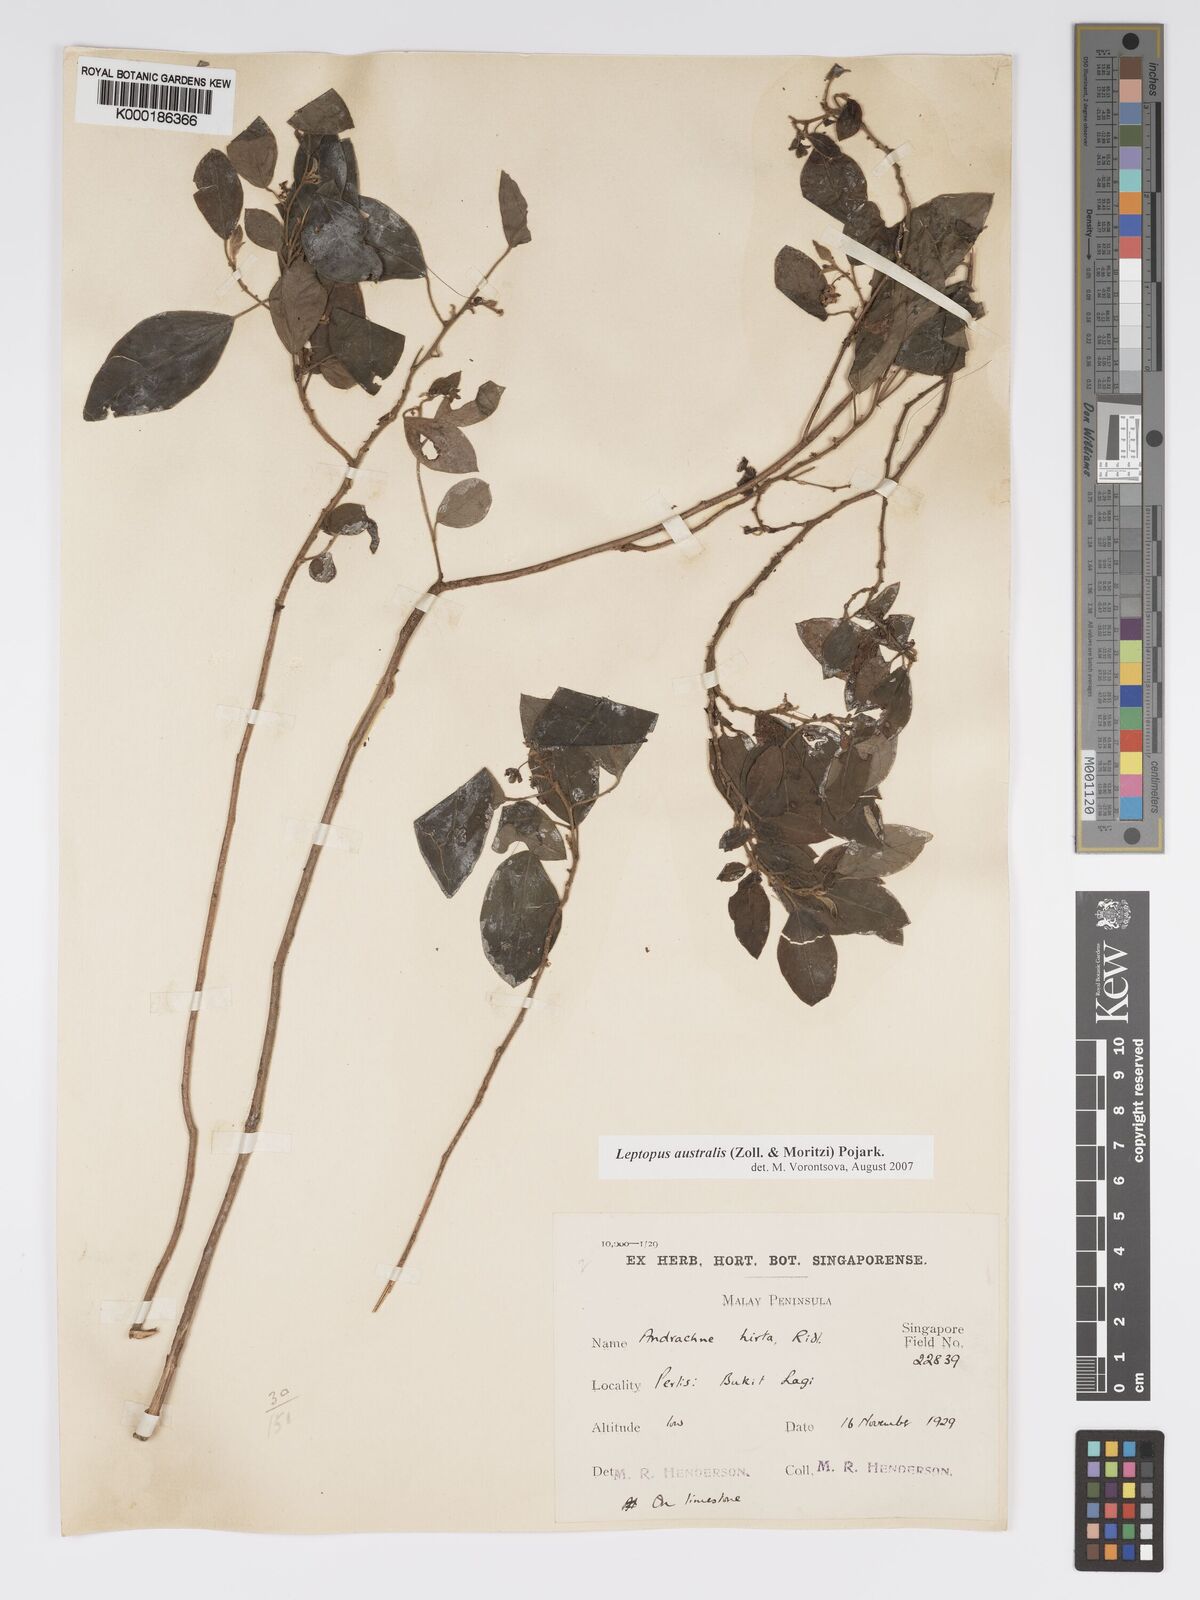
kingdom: Plantae
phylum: Tracheophyta
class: Magnoliopsida
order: Malpighiales
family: Phyllanthaceae
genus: Leptopus
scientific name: Leptopus australis
